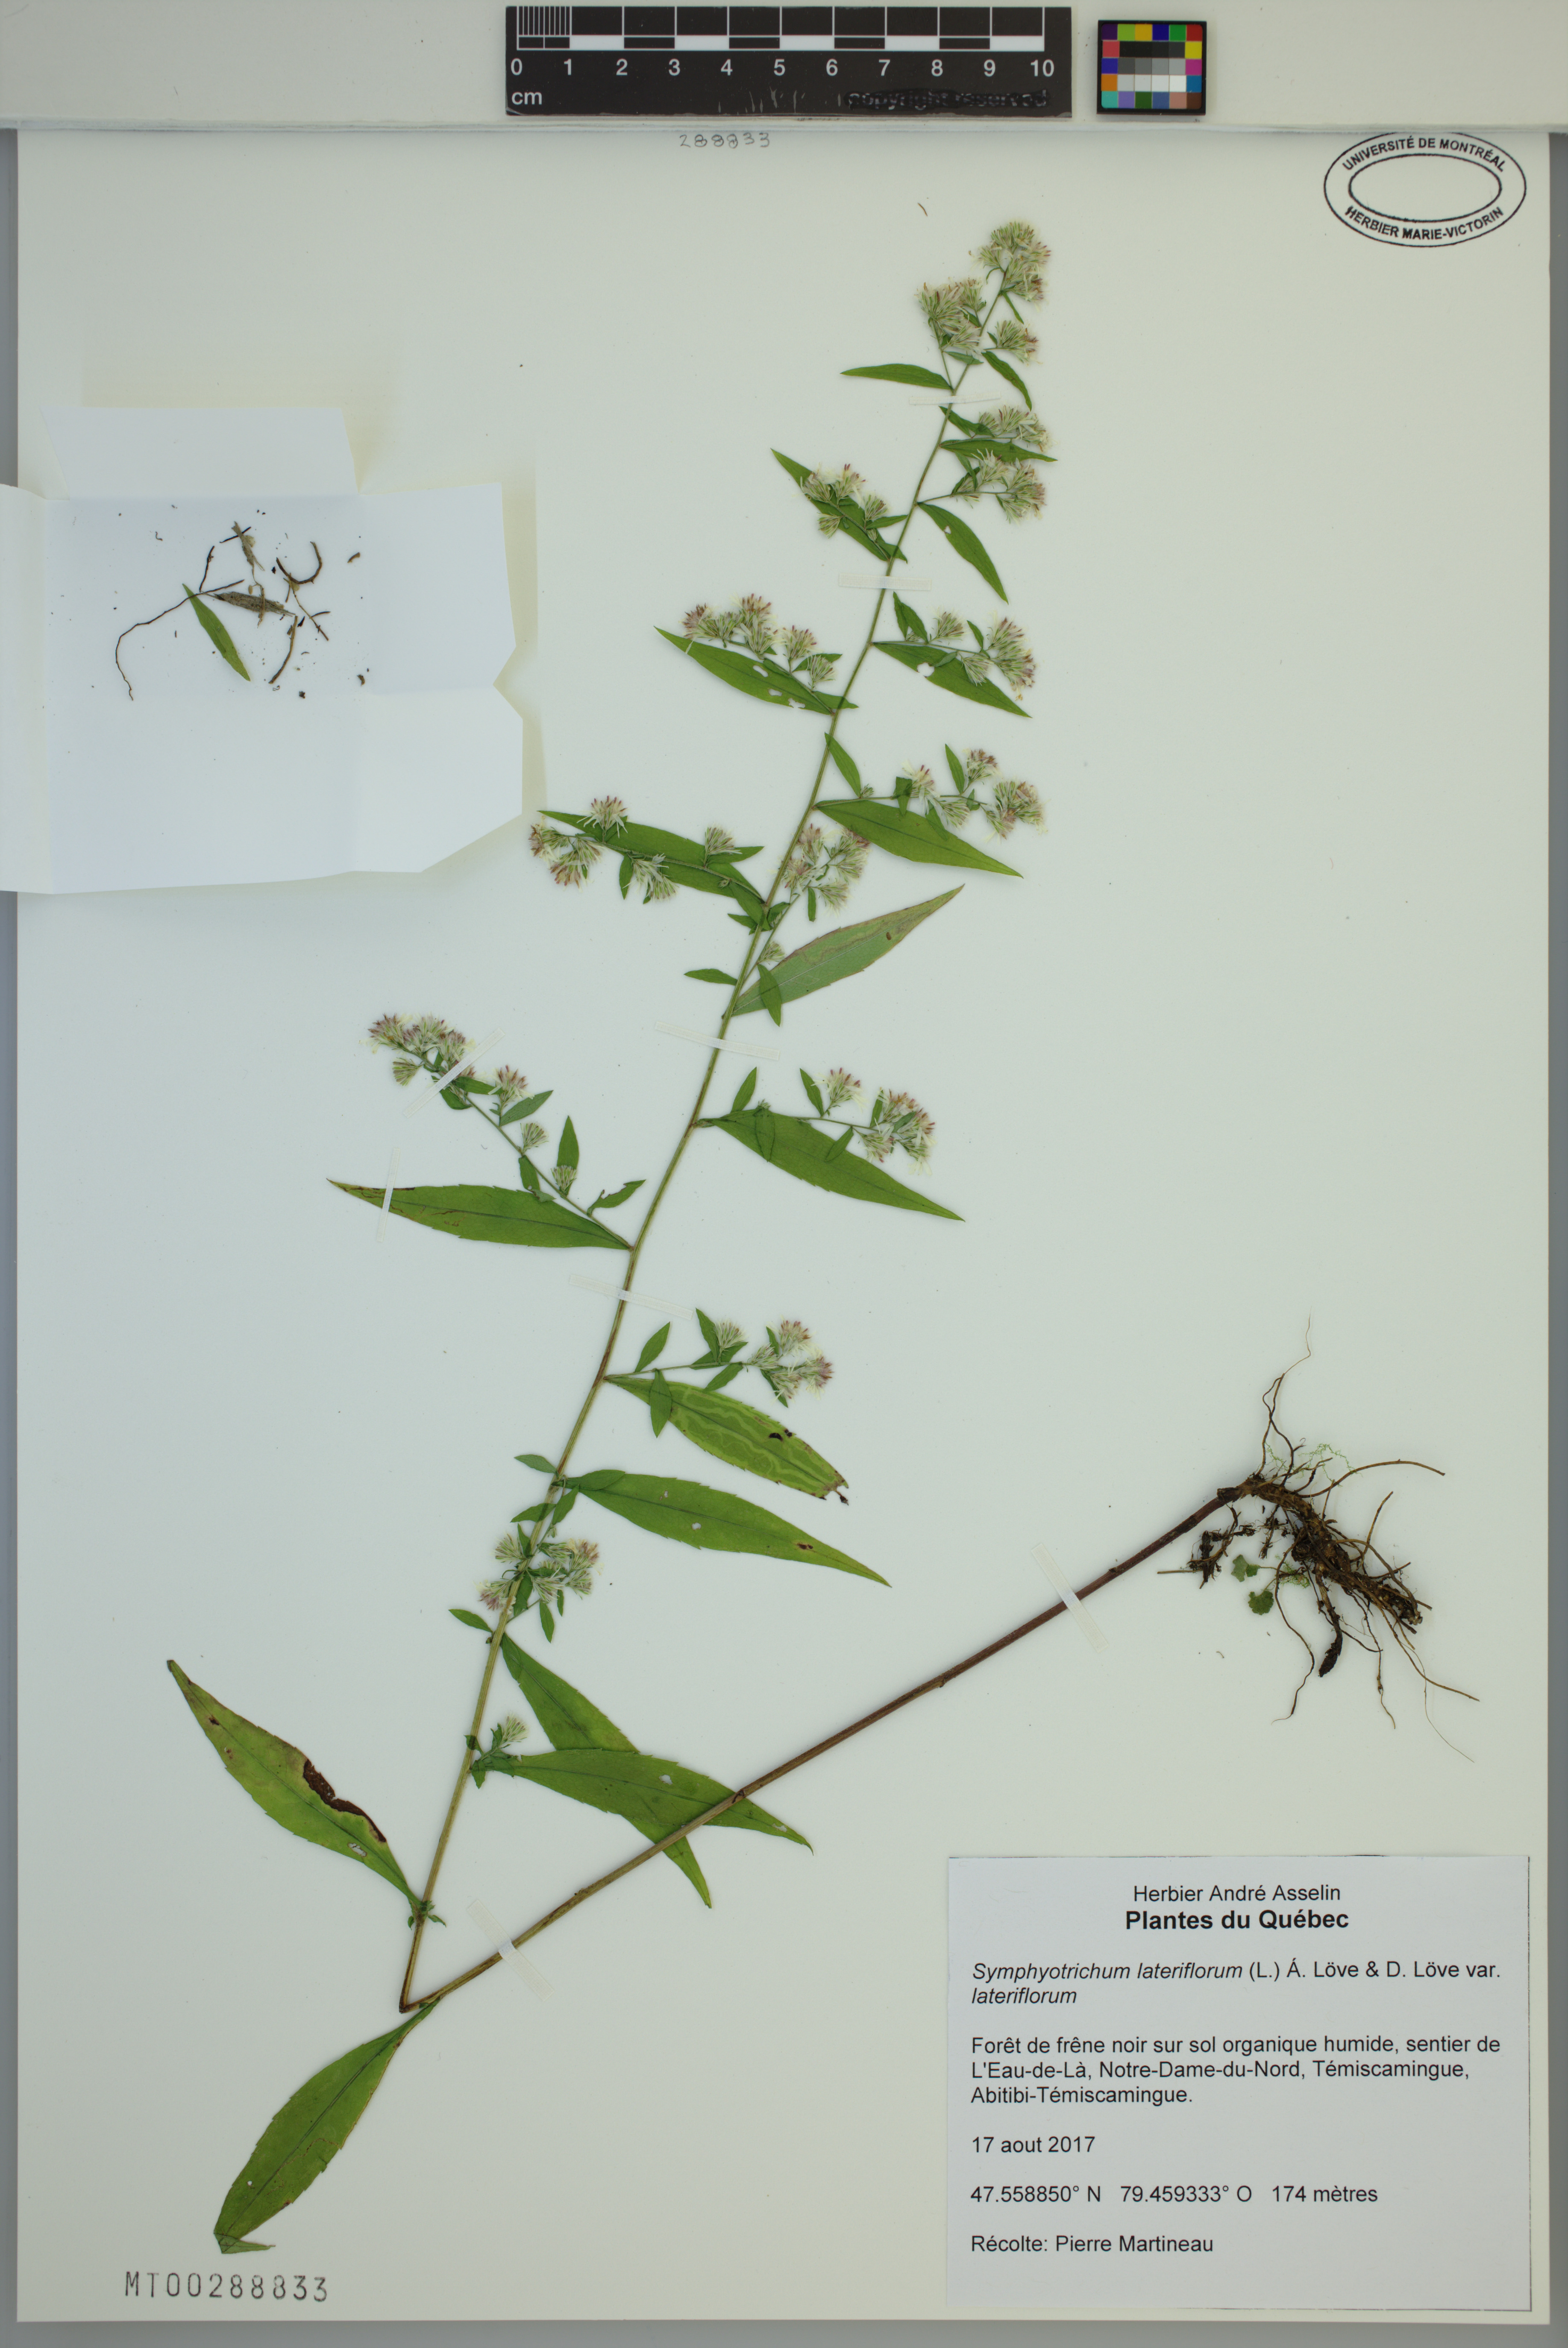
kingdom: Plantae
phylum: Tracheophyta
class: Magnoliopsida
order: Asterales
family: Asteraceae
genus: Symphyotrichum
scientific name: Symphyotrichum lateriflorum
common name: Calico aster
